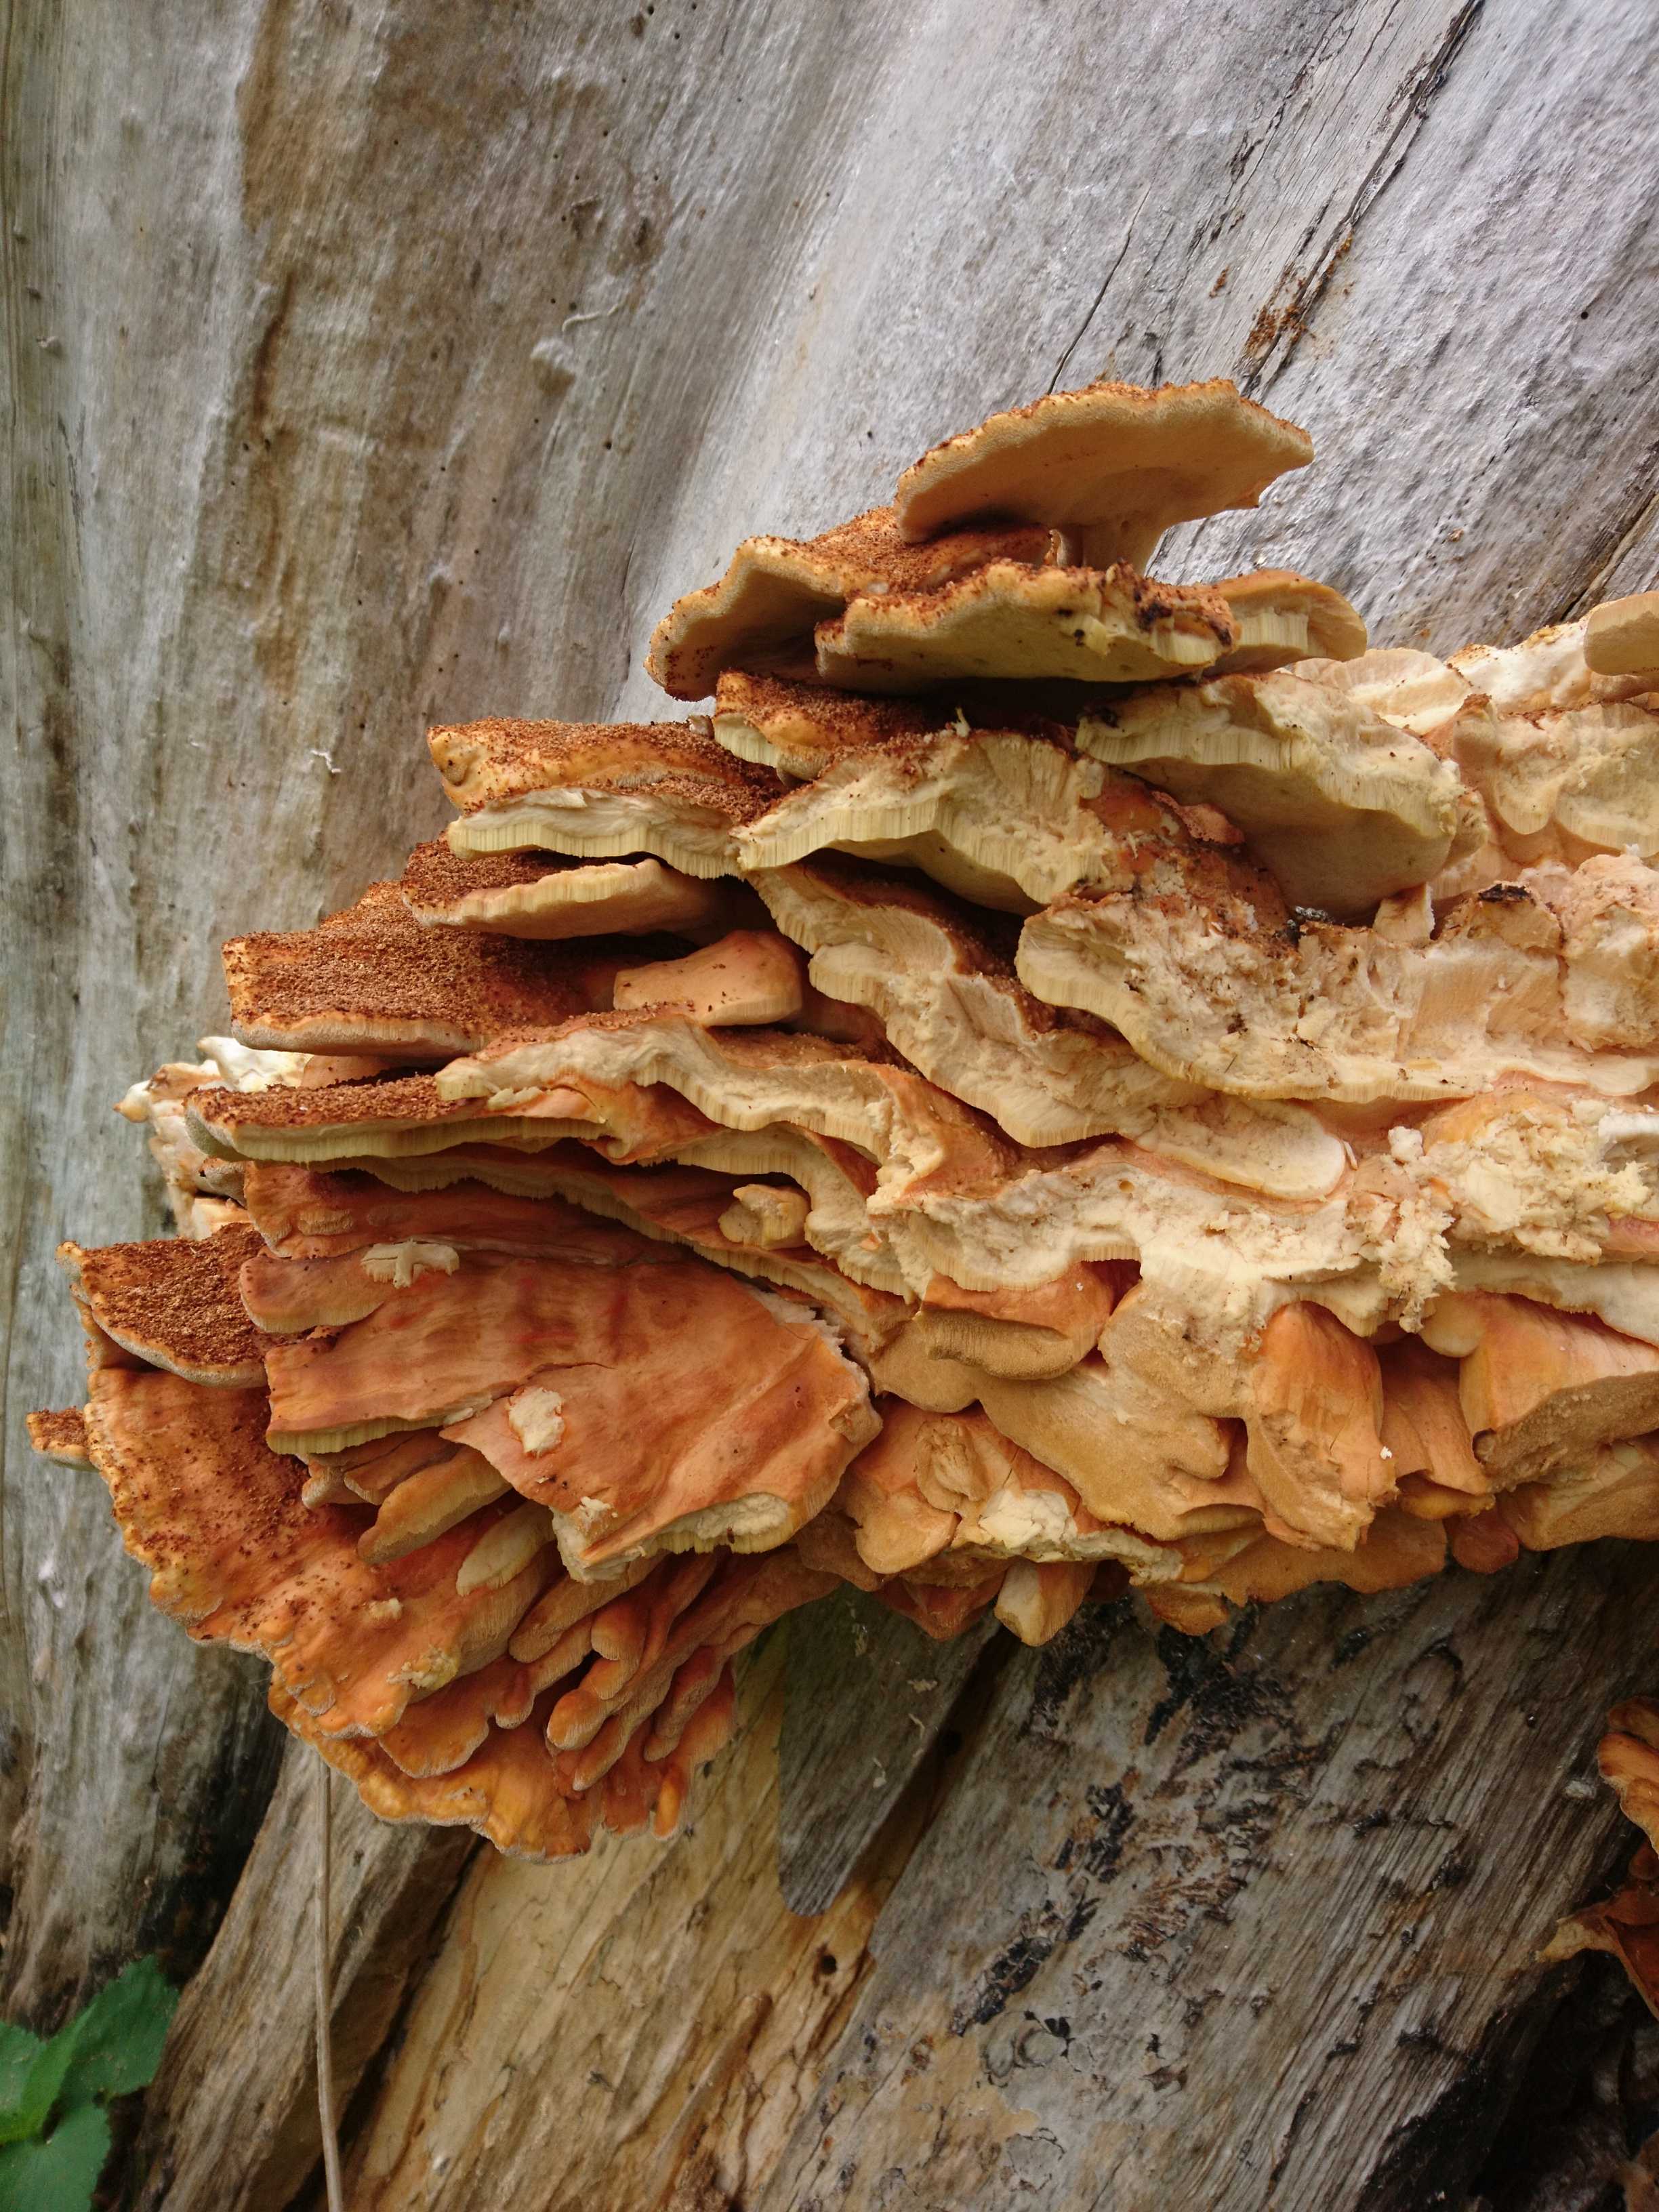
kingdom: Fungi
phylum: Basidiomycota
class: Agaricomycetes
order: Polyporales
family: Laetiporaceae
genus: Laetiporus
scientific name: Laetiporus sulphureus
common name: svovlporesvamp
